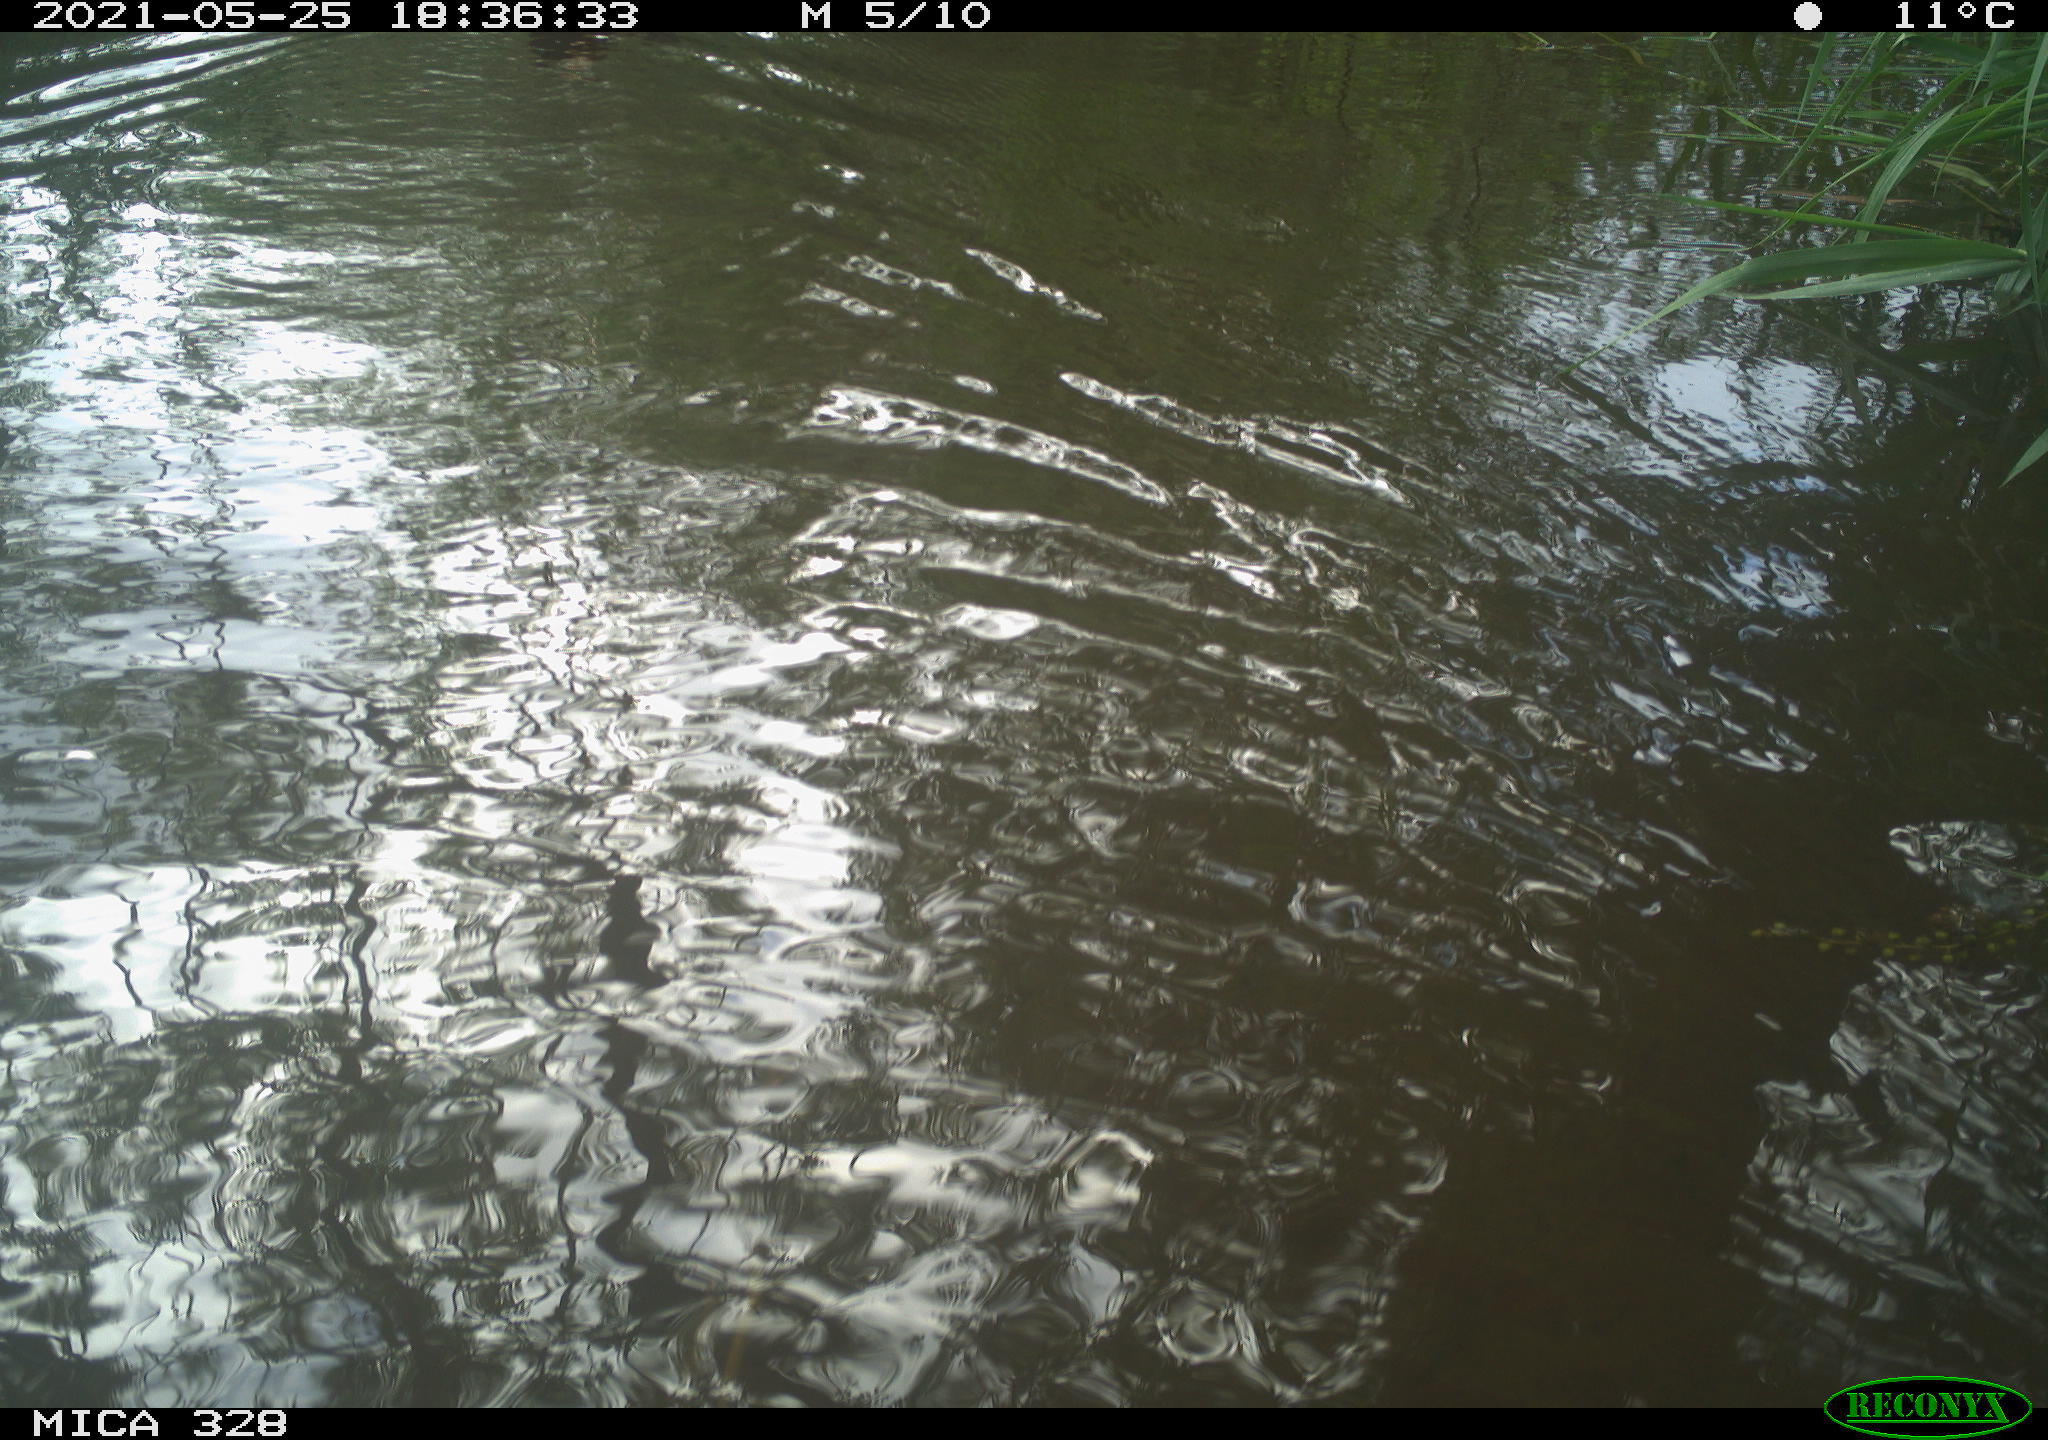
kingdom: Animalia
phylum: Chordata
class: Aves
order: Anseriformes
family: Anatidae
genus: Aix
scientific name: Aix galericulata
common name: Mandarin duck
